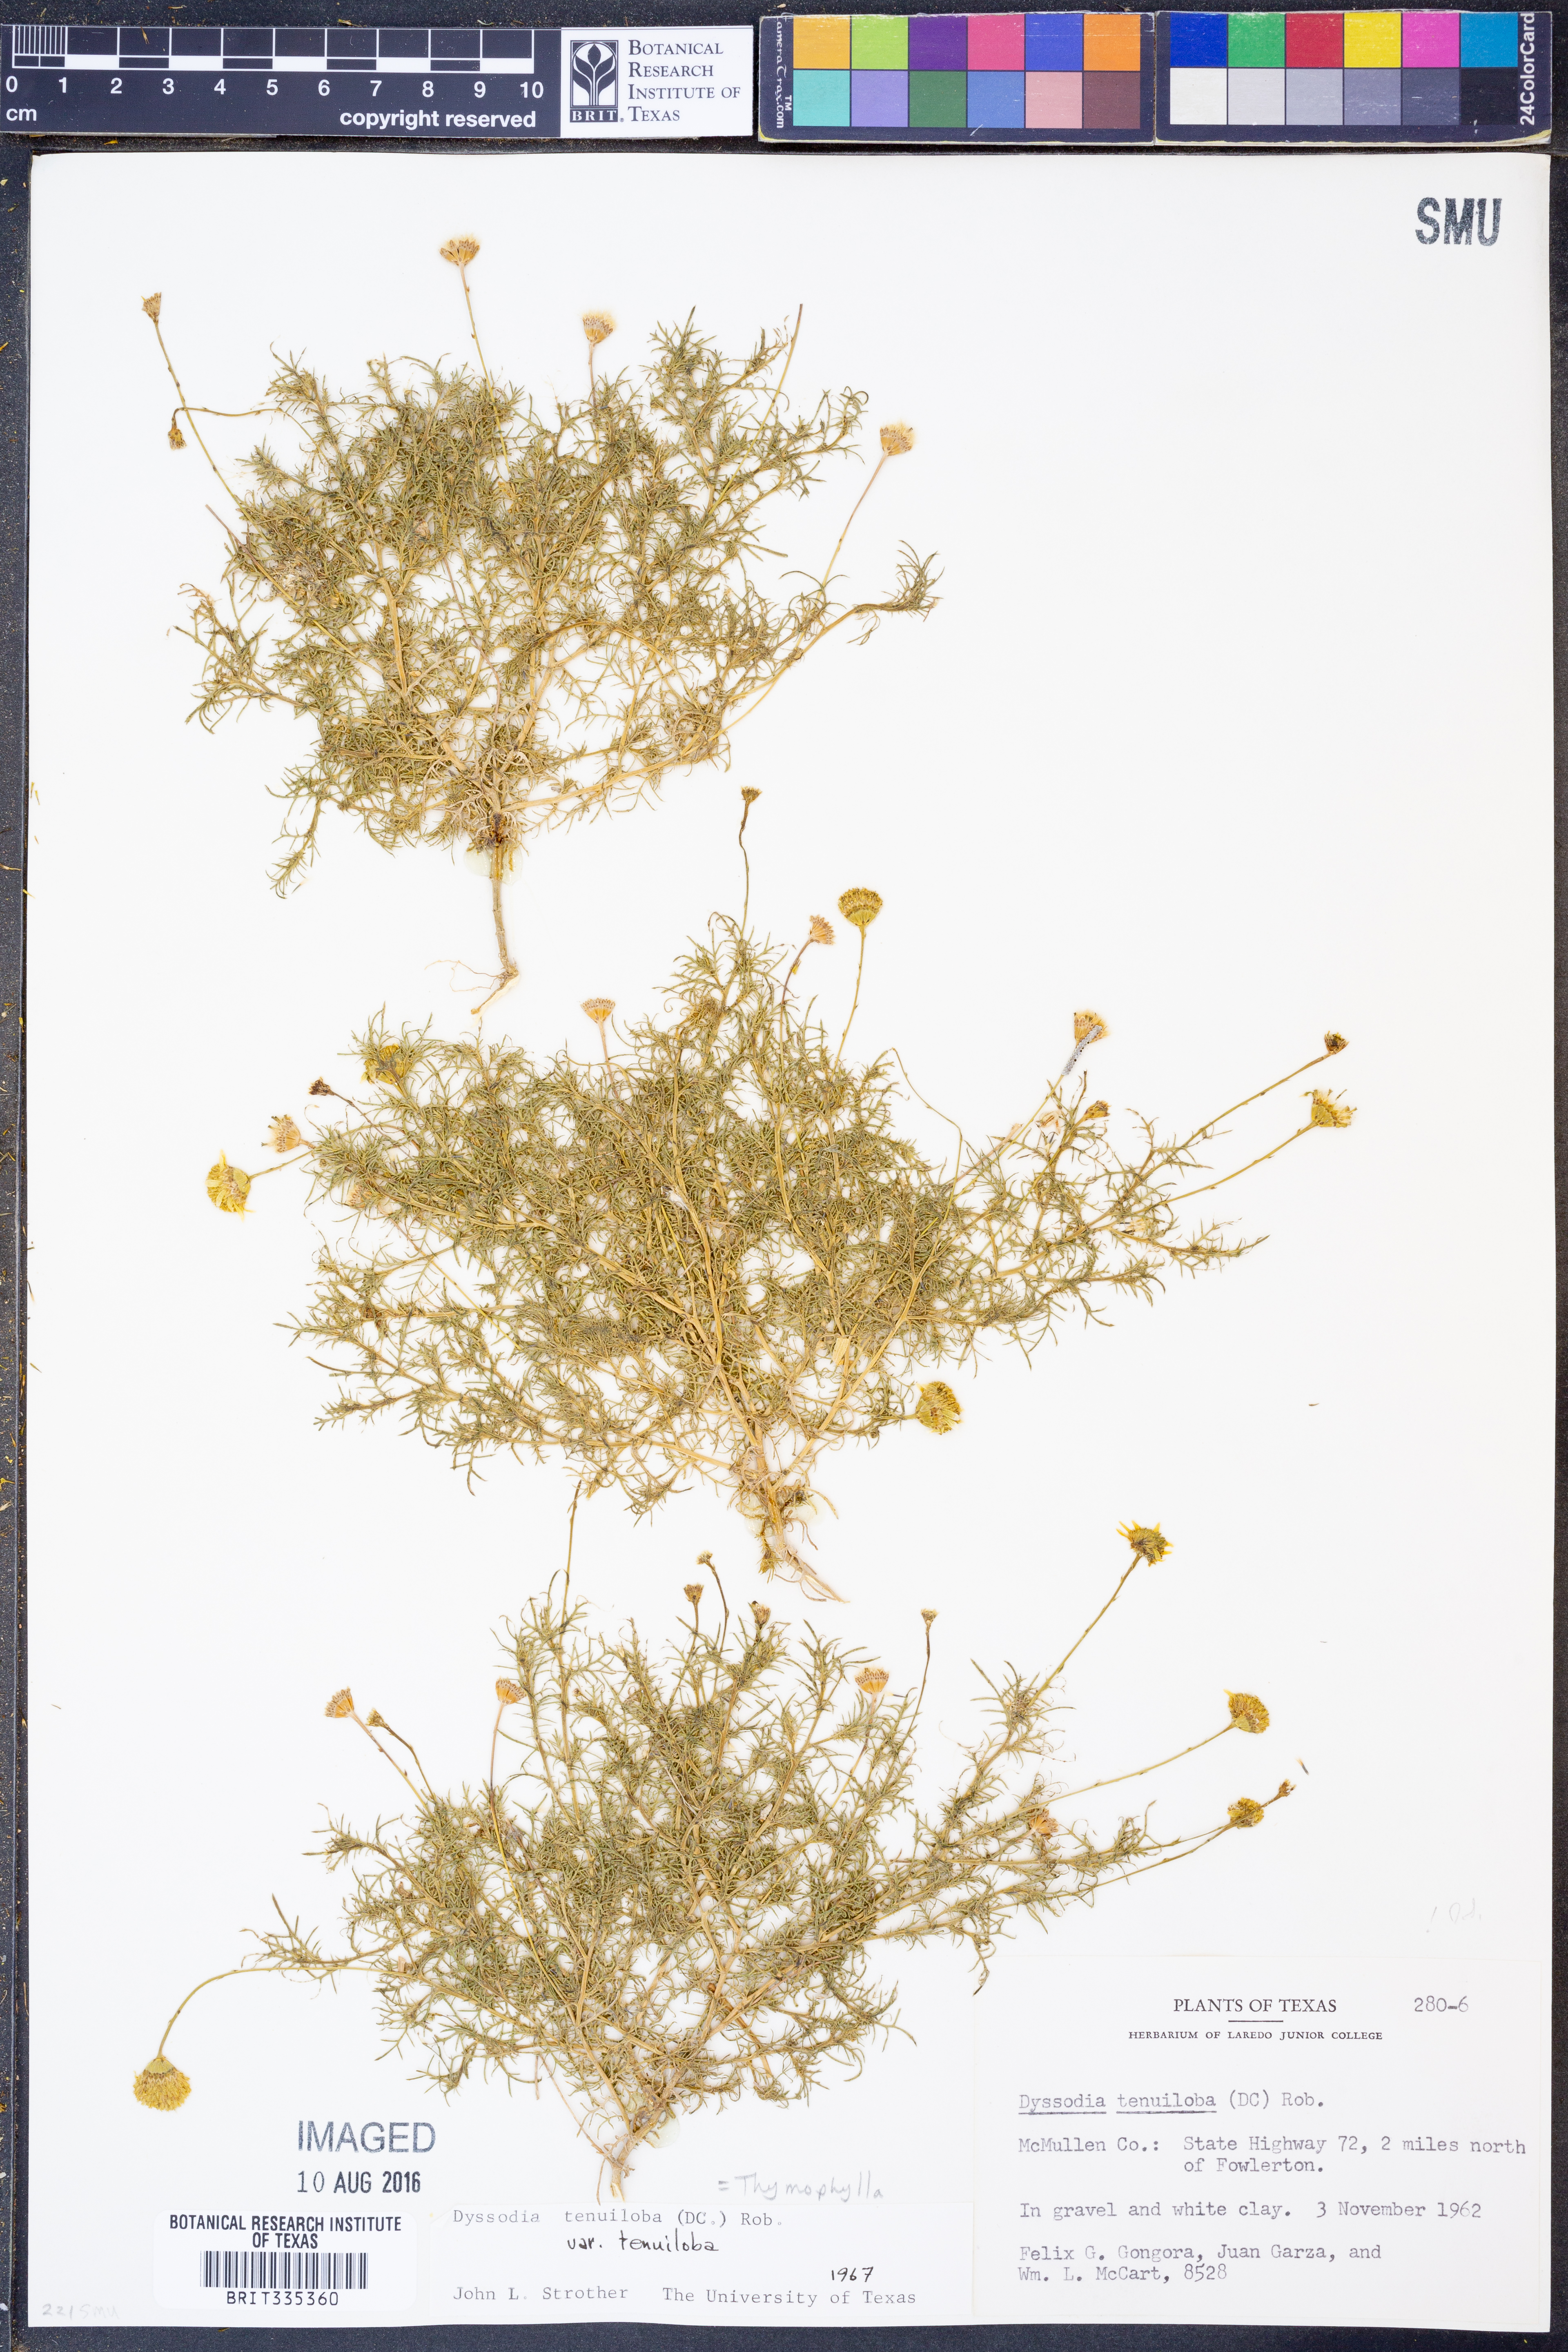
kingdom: Plantae
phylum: Tracheophyta
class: Magnoliopsida
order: Asterales
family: Asteraceae
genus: Thymophylla
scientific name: Thymophylla tenuiloba
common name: Dahlberg's daisy
